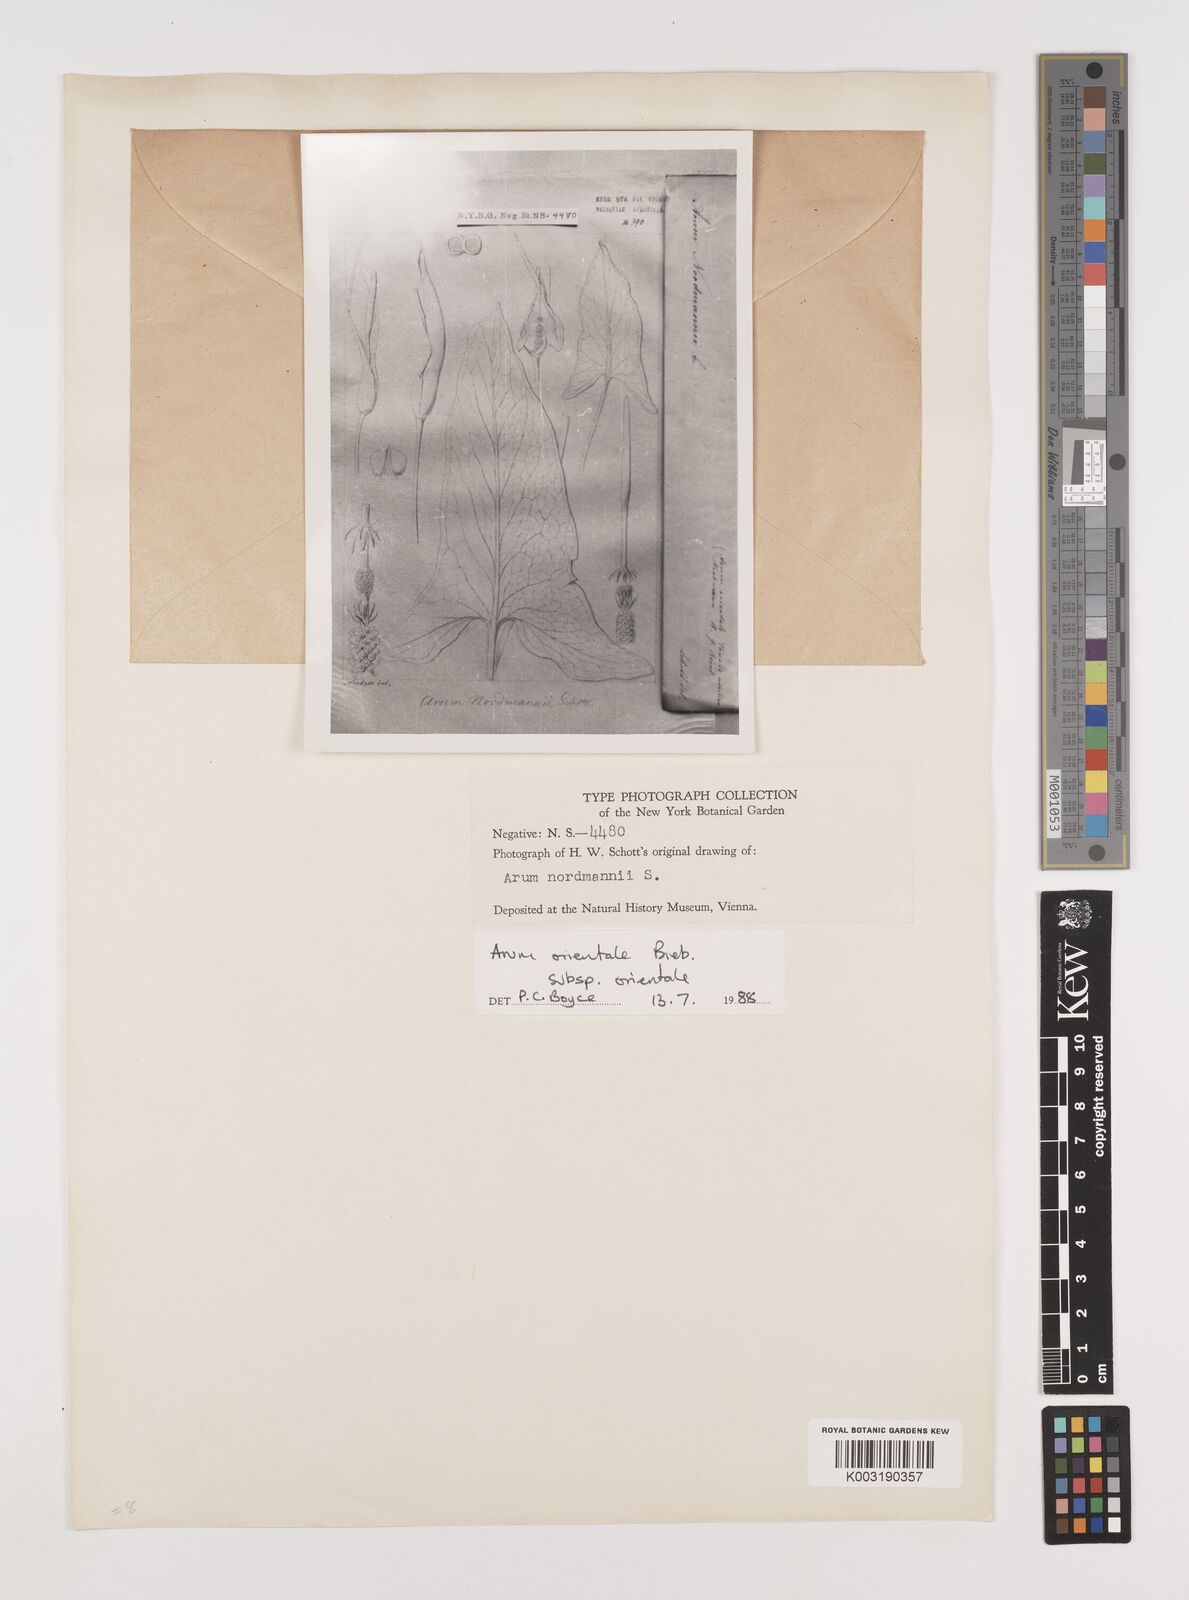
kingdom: Plantae
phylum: Tracheophyta
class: Liliopsida
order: Alismatales
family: Araceae
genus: Arum
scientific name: Arum maculatum
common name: Lords-and-ladies
